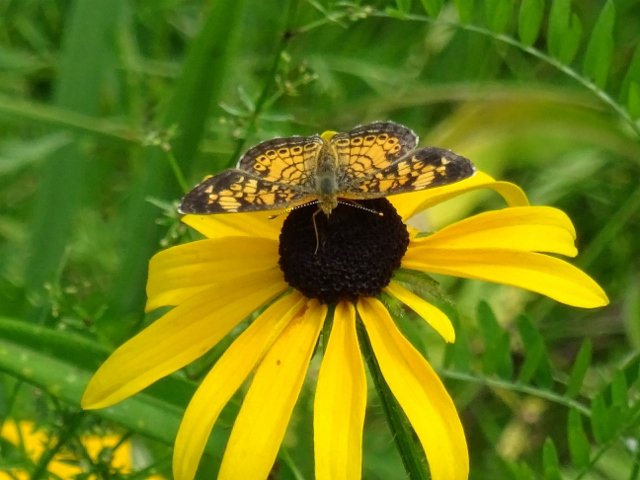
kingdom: Animalia
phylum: Arthropoda
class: Insecta
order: Lepidoptera
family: Nymphalidae
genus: Phyciodes
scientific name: Phyciodes tharos
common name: Northern Crescent
